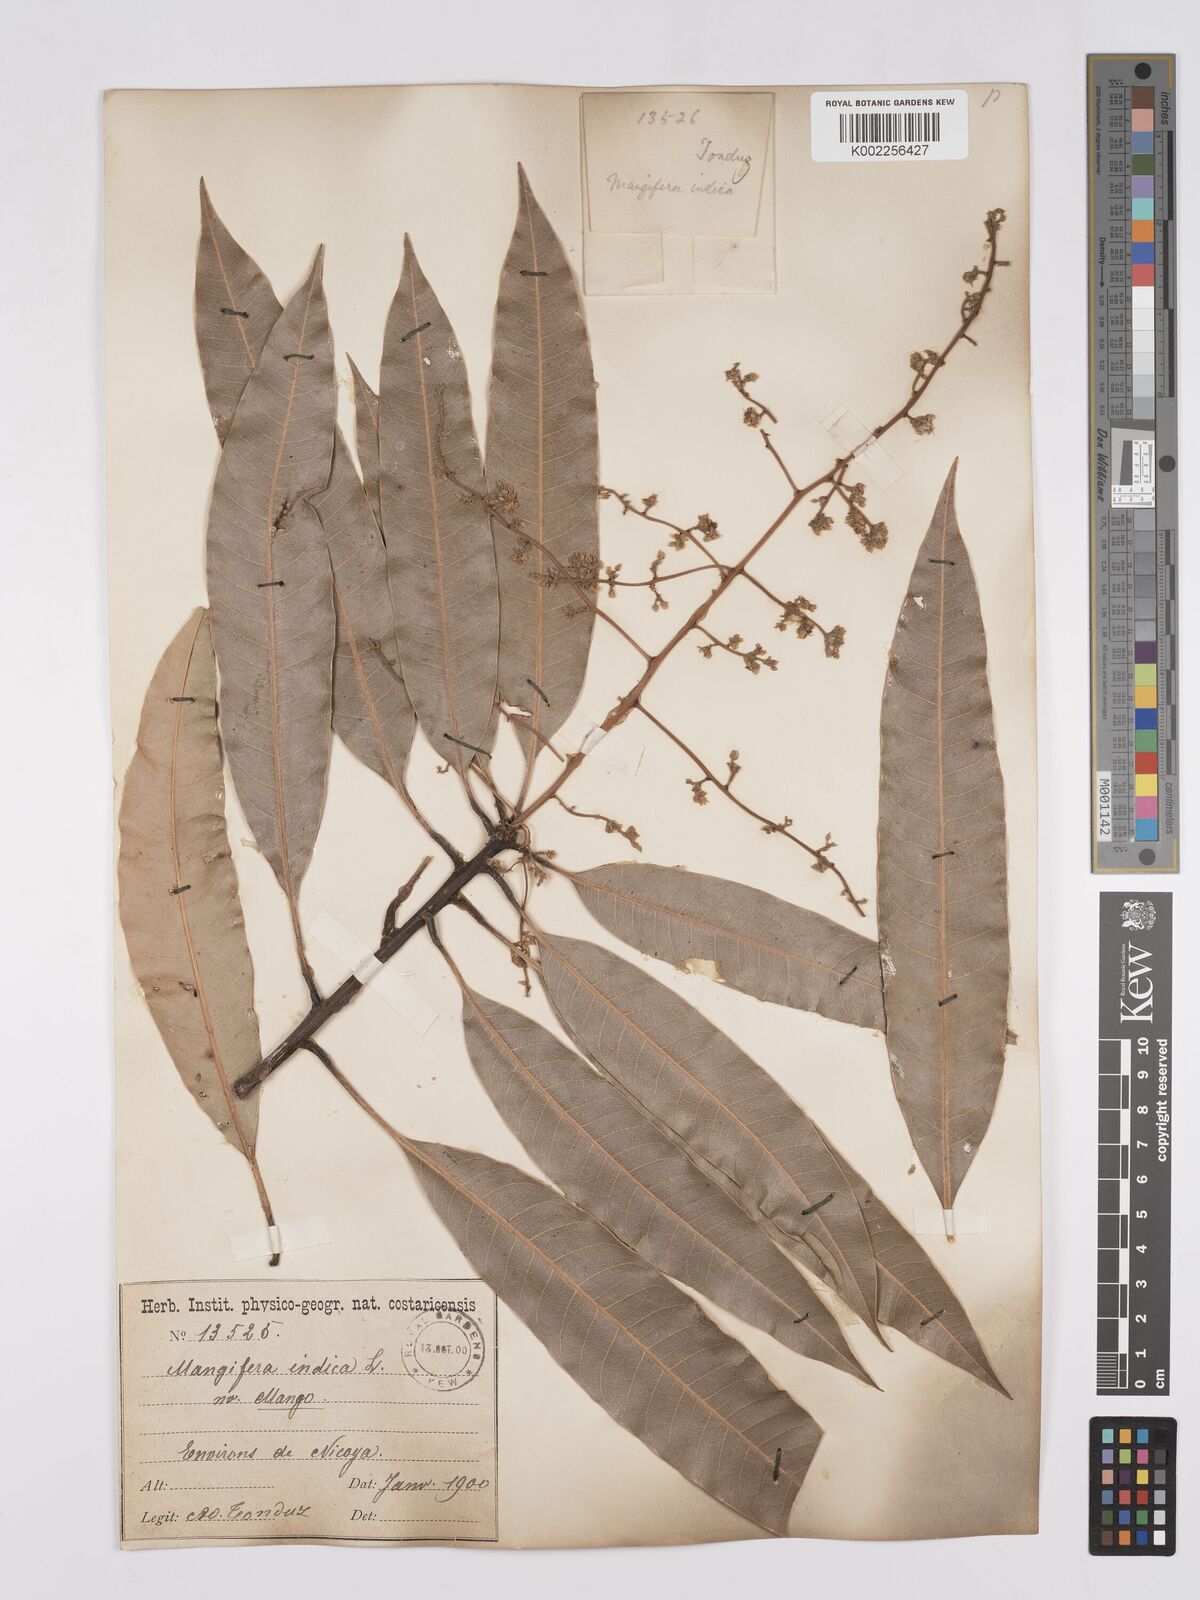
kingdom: Plantae
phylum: Tracheophyta
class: Magnoliopsida
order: Sapindales
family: Anacardiaceae
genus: Mangifera
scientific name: Mangifera indica
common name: Mango
